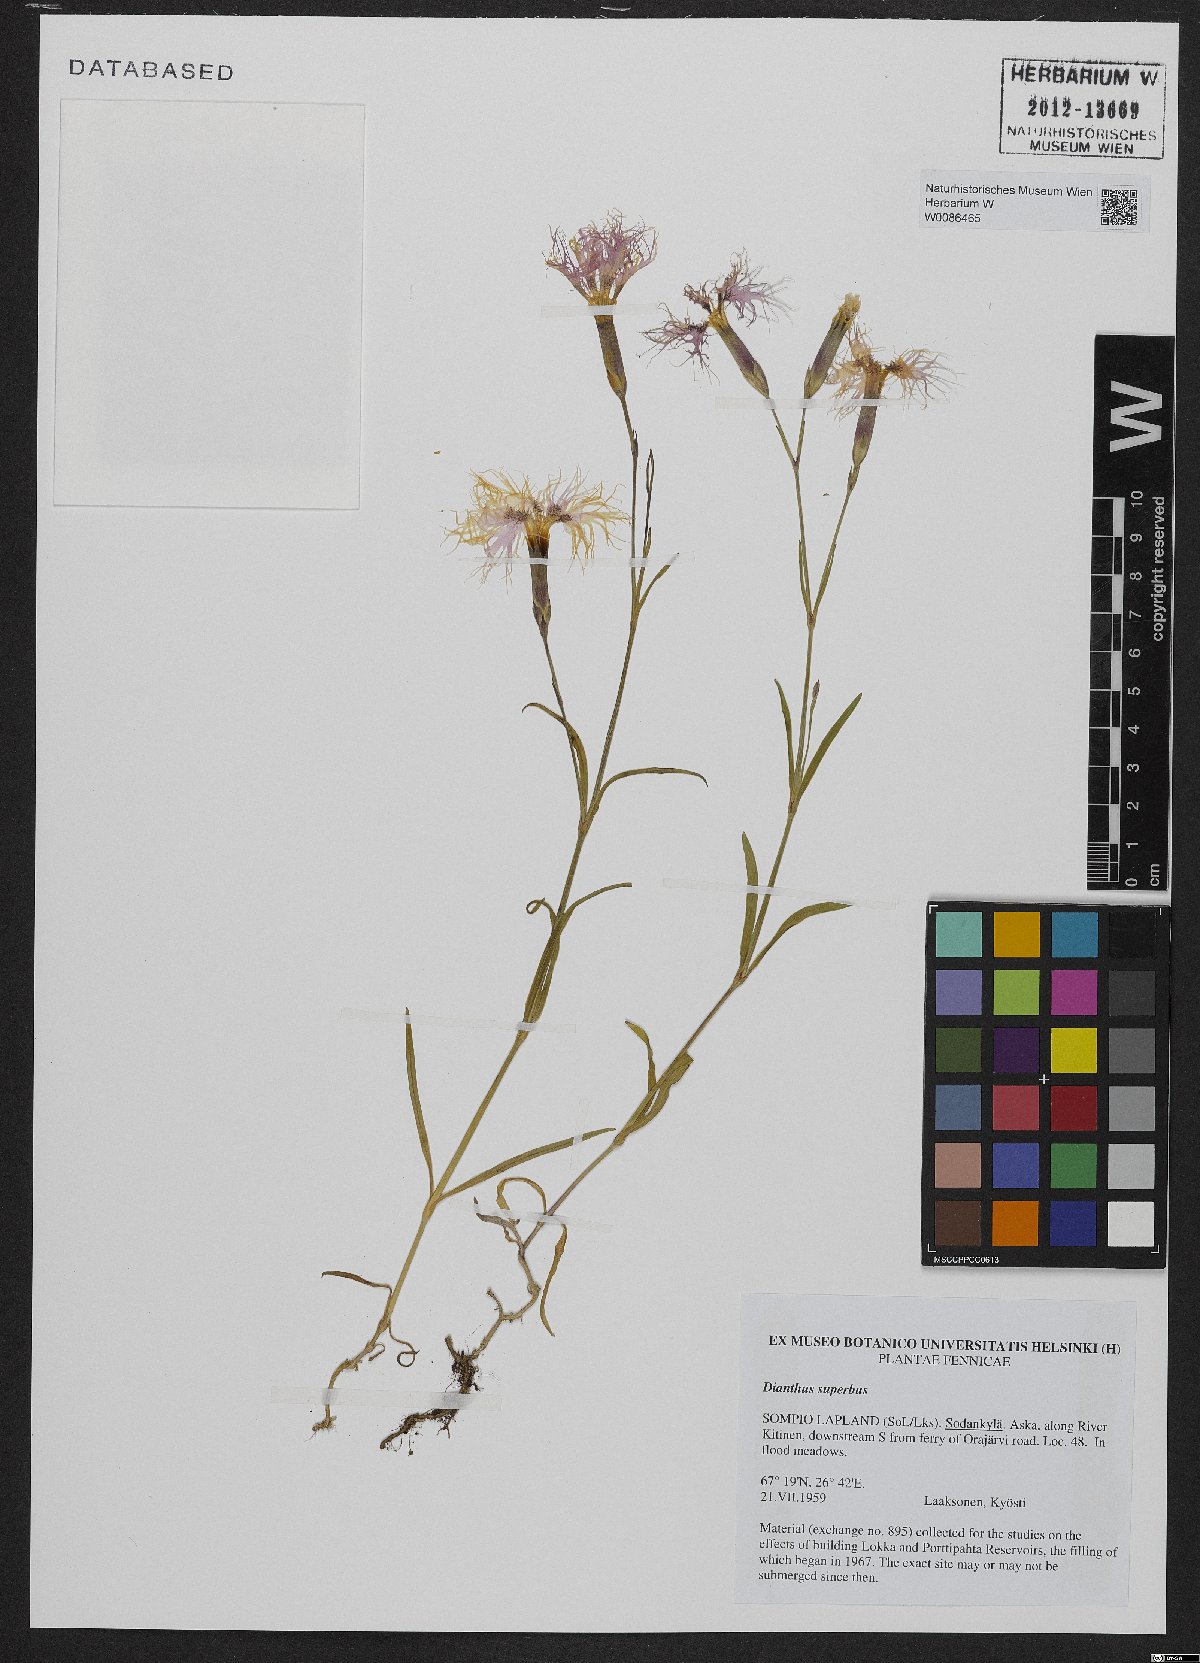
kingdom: Plantae
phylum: Tracheophyta
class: Magnoliopsida
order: Caryophyllales
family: Caryophyllaceae
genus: Dianthus
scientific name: Dianthus superbus
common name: Fringed pink
